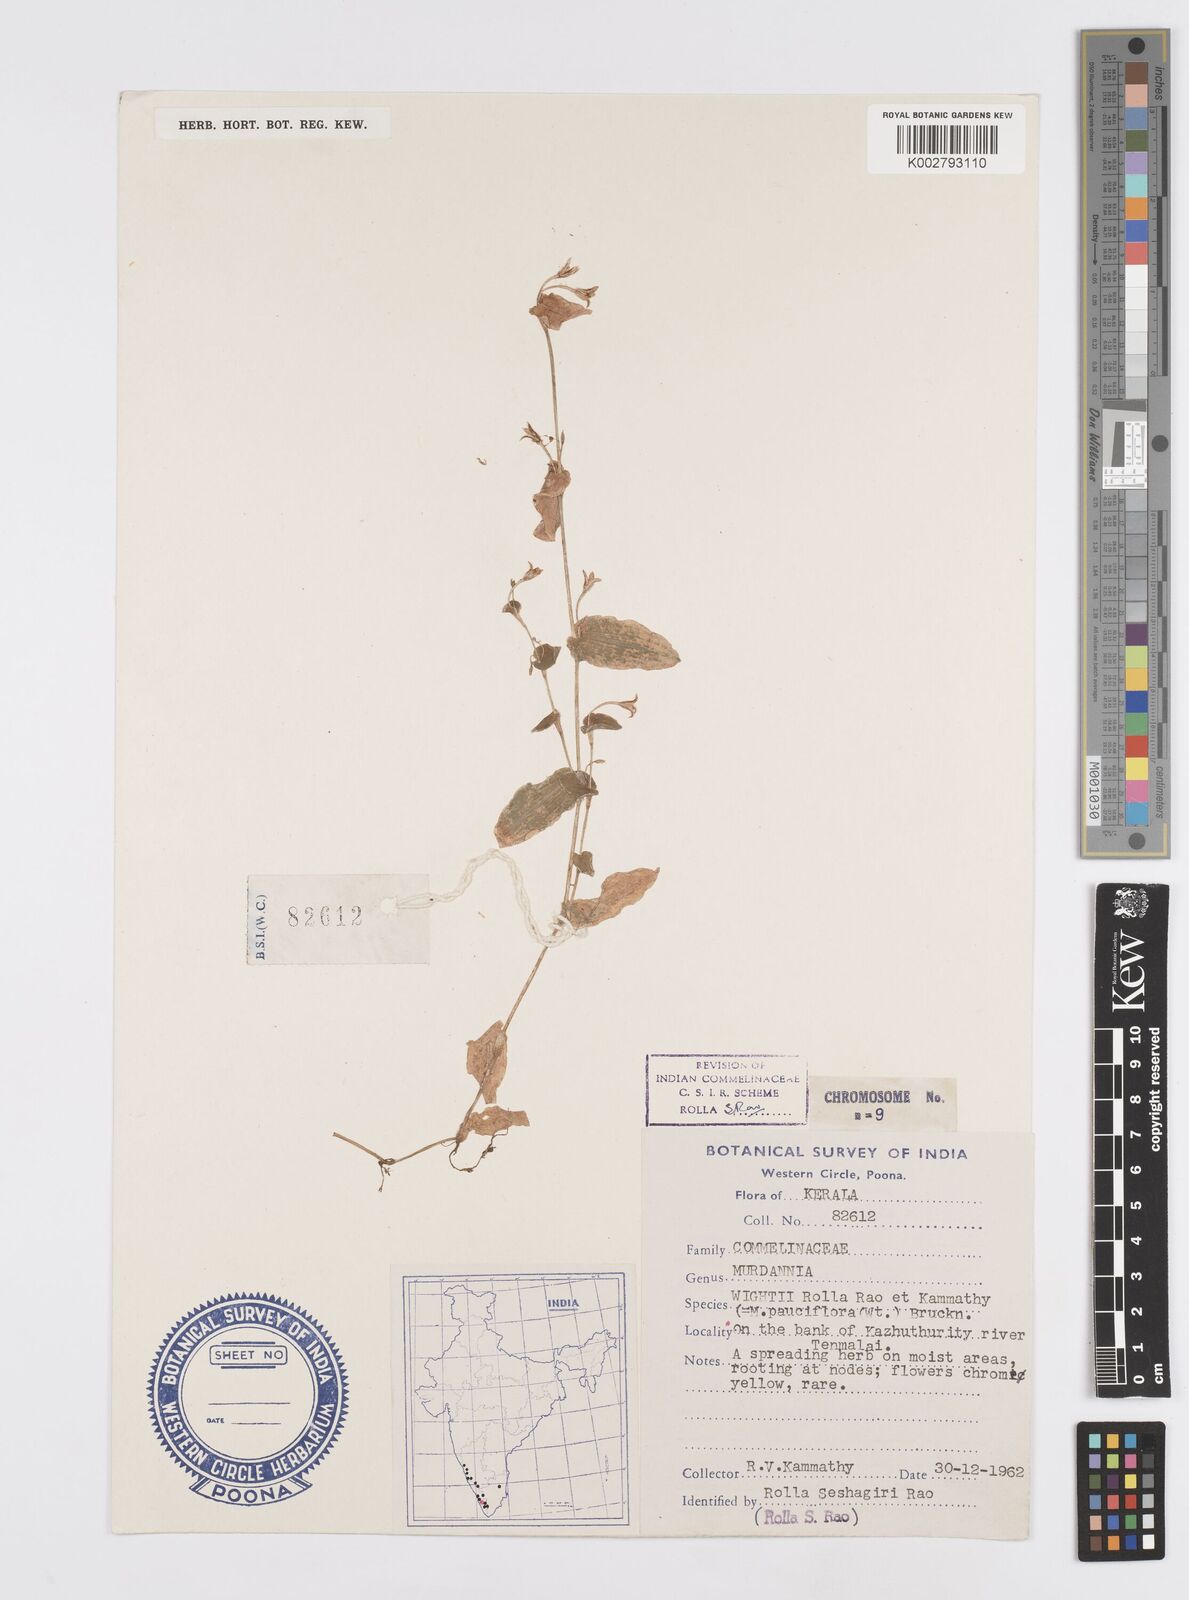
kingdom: Plantae
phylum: Tracheophyta
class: Liliopsida
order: Commelinales
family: Commelinaceae
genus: Murdannia
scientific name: Murdannia pauciflora
